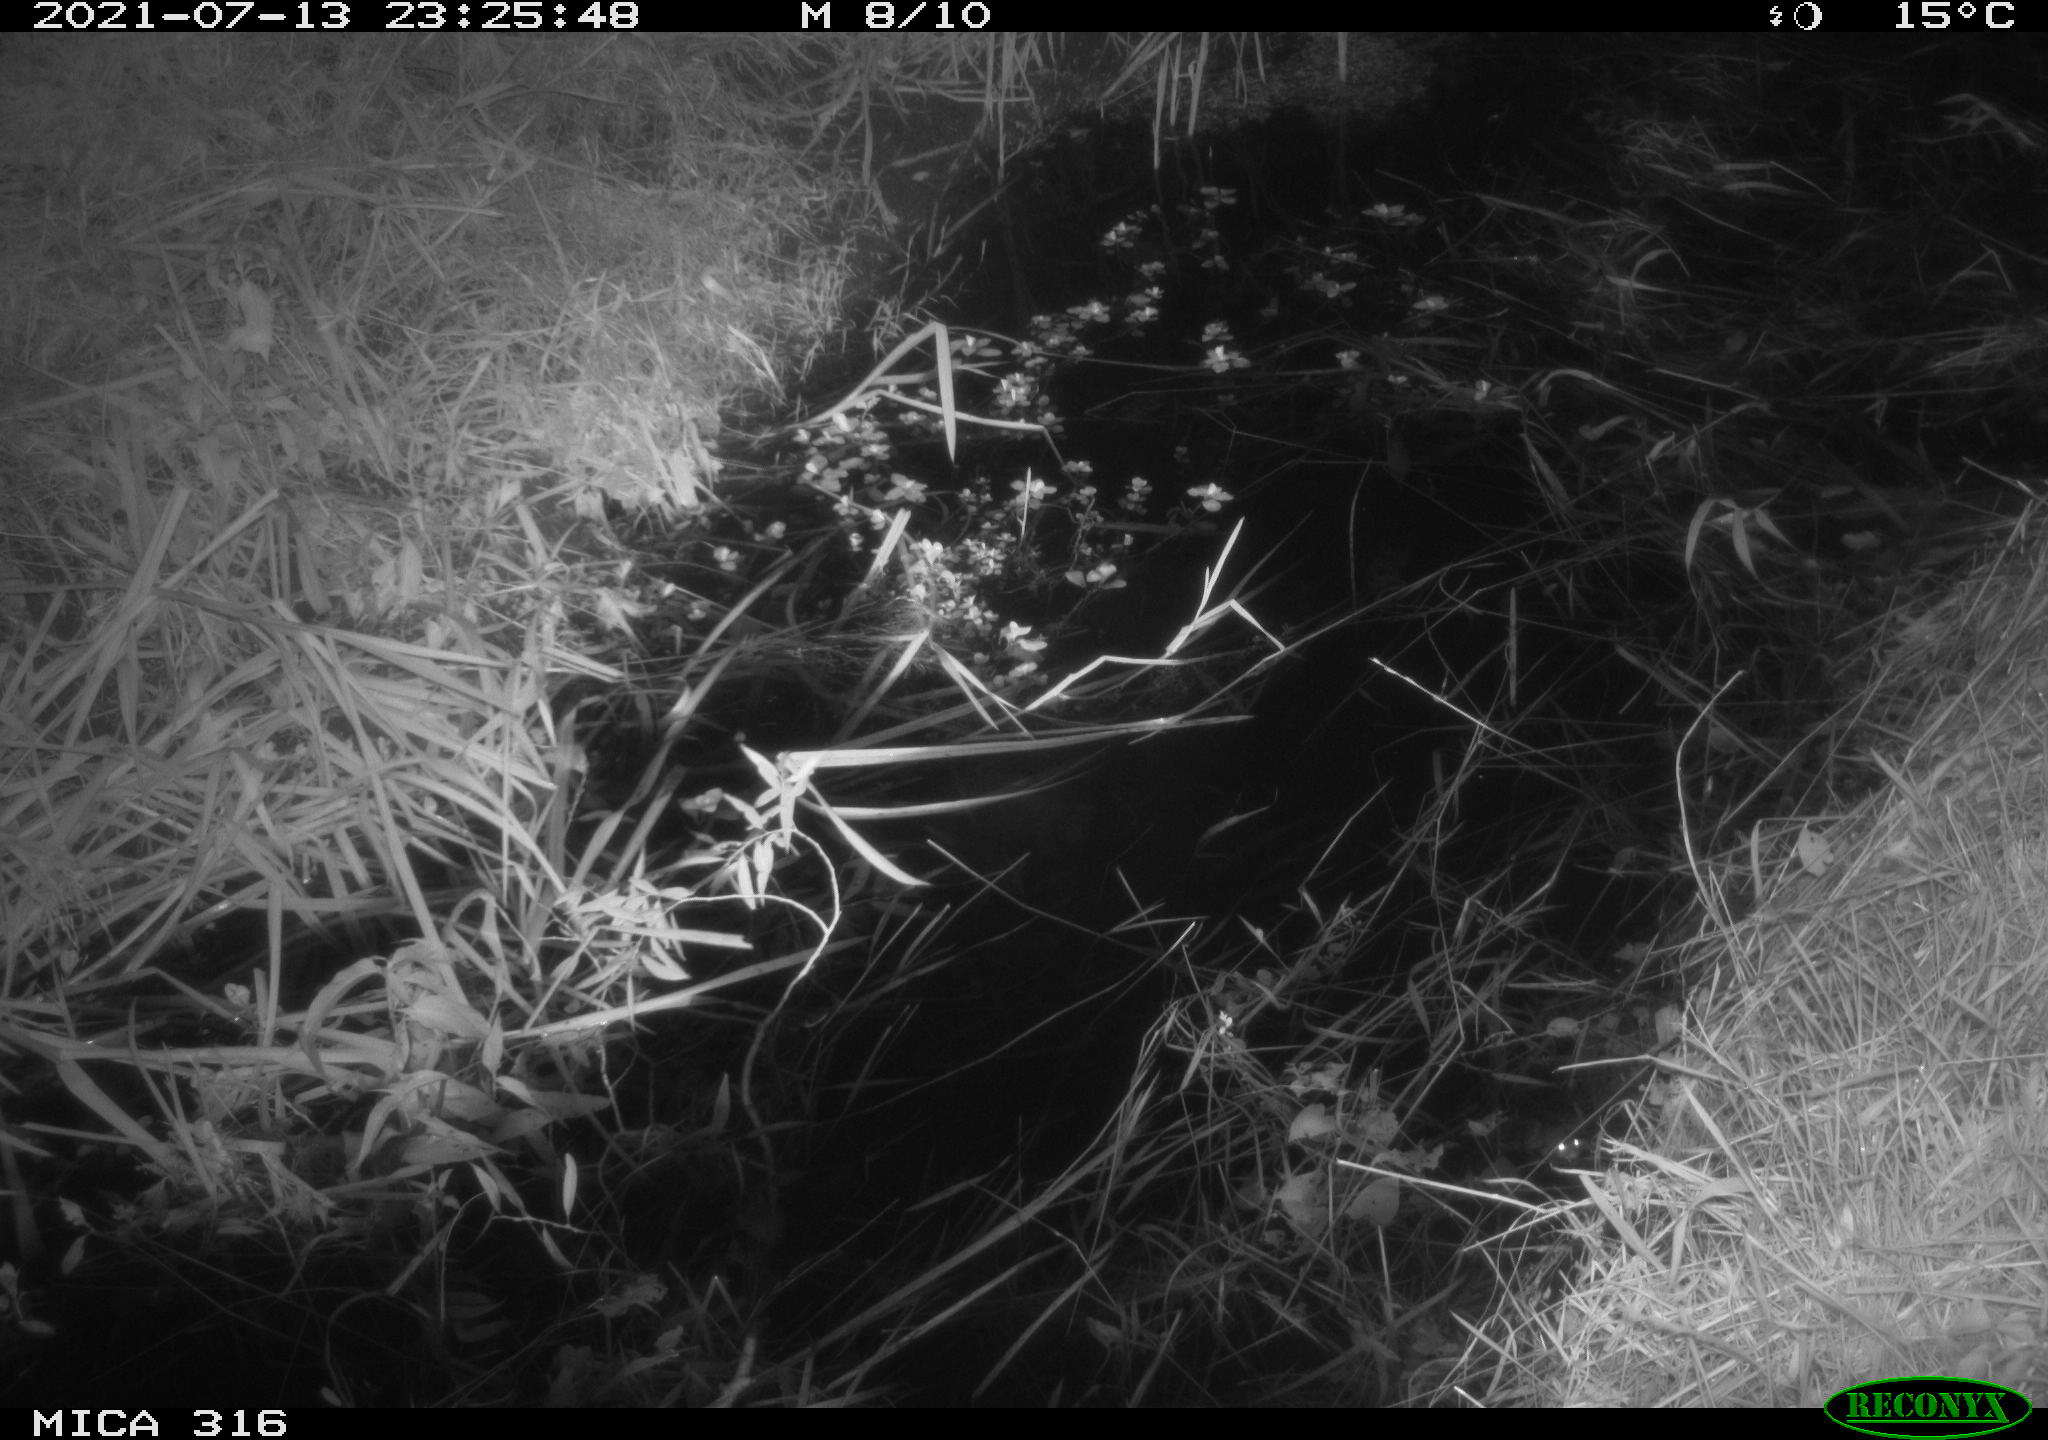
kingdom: Animalia
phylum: Chordata
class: Mammalia
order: Rodentia
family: Muridae
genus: Rattus
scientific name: Rattus norvegicus
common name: Brown rat
